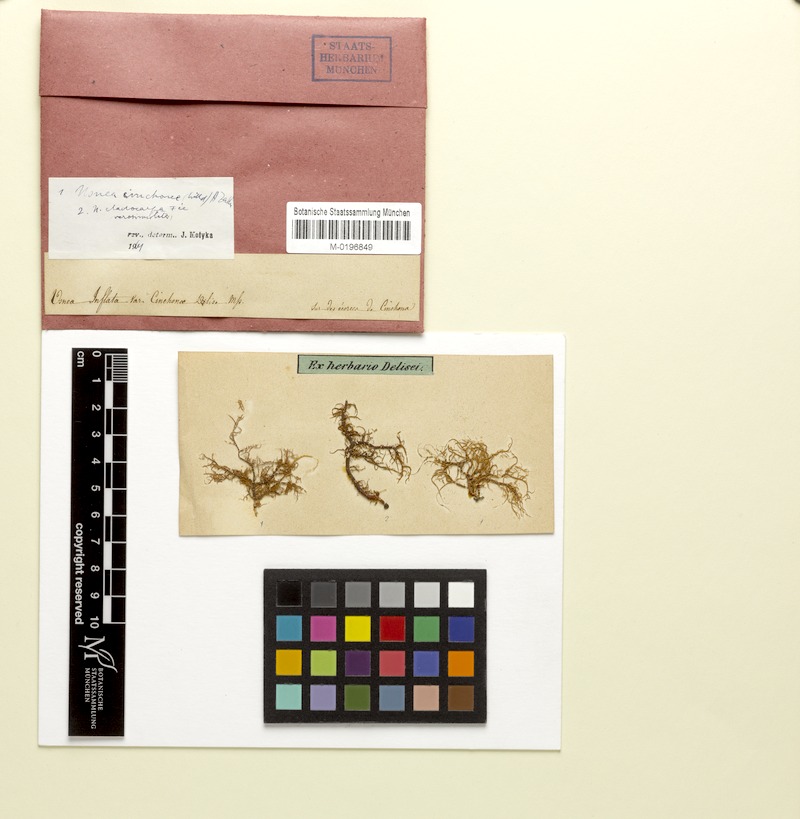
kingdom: Fungi
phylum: Ascomycota
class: Lecanoromycetes
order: Lecanorales
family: Parmeliaceae
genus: Usnea
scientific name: Usnea cladocarpa
